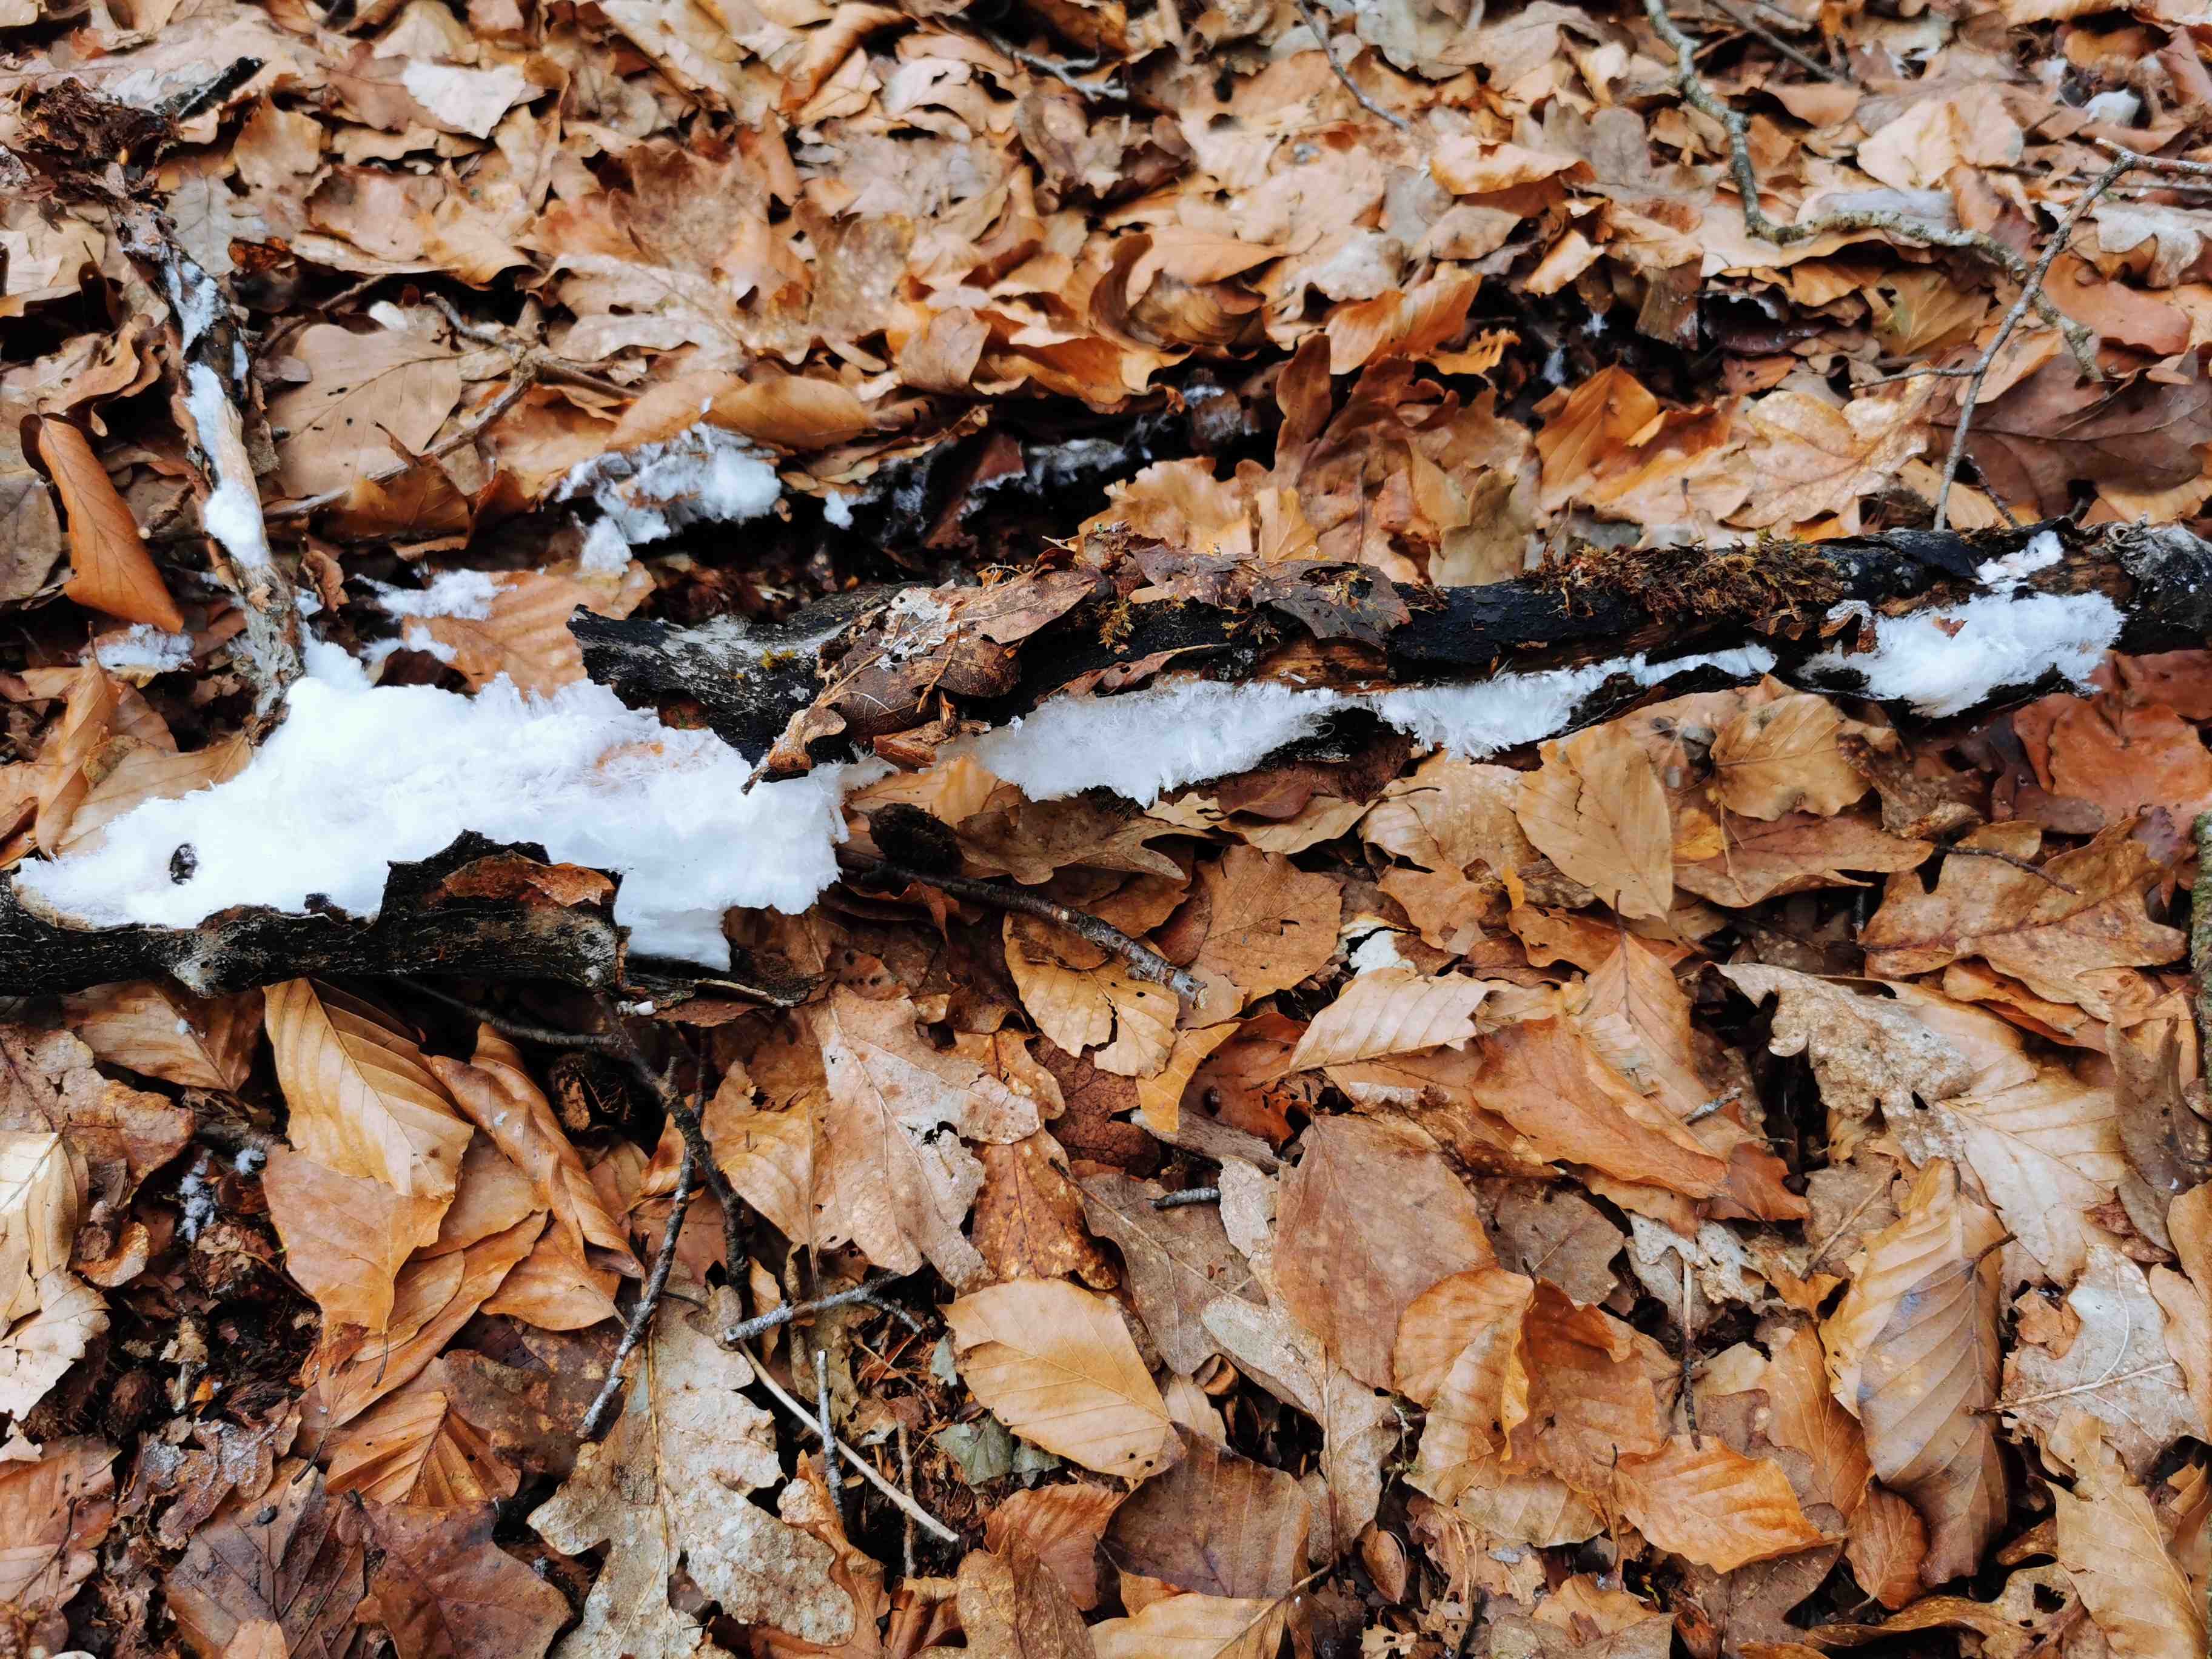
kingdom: Fungi
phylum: Basidiomycota
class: Tremellomycetes
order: Tremellales
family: Exidiaceae
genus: Exidiopsis
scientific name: Exidiopsis effusa
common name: smuk bævrehinde
